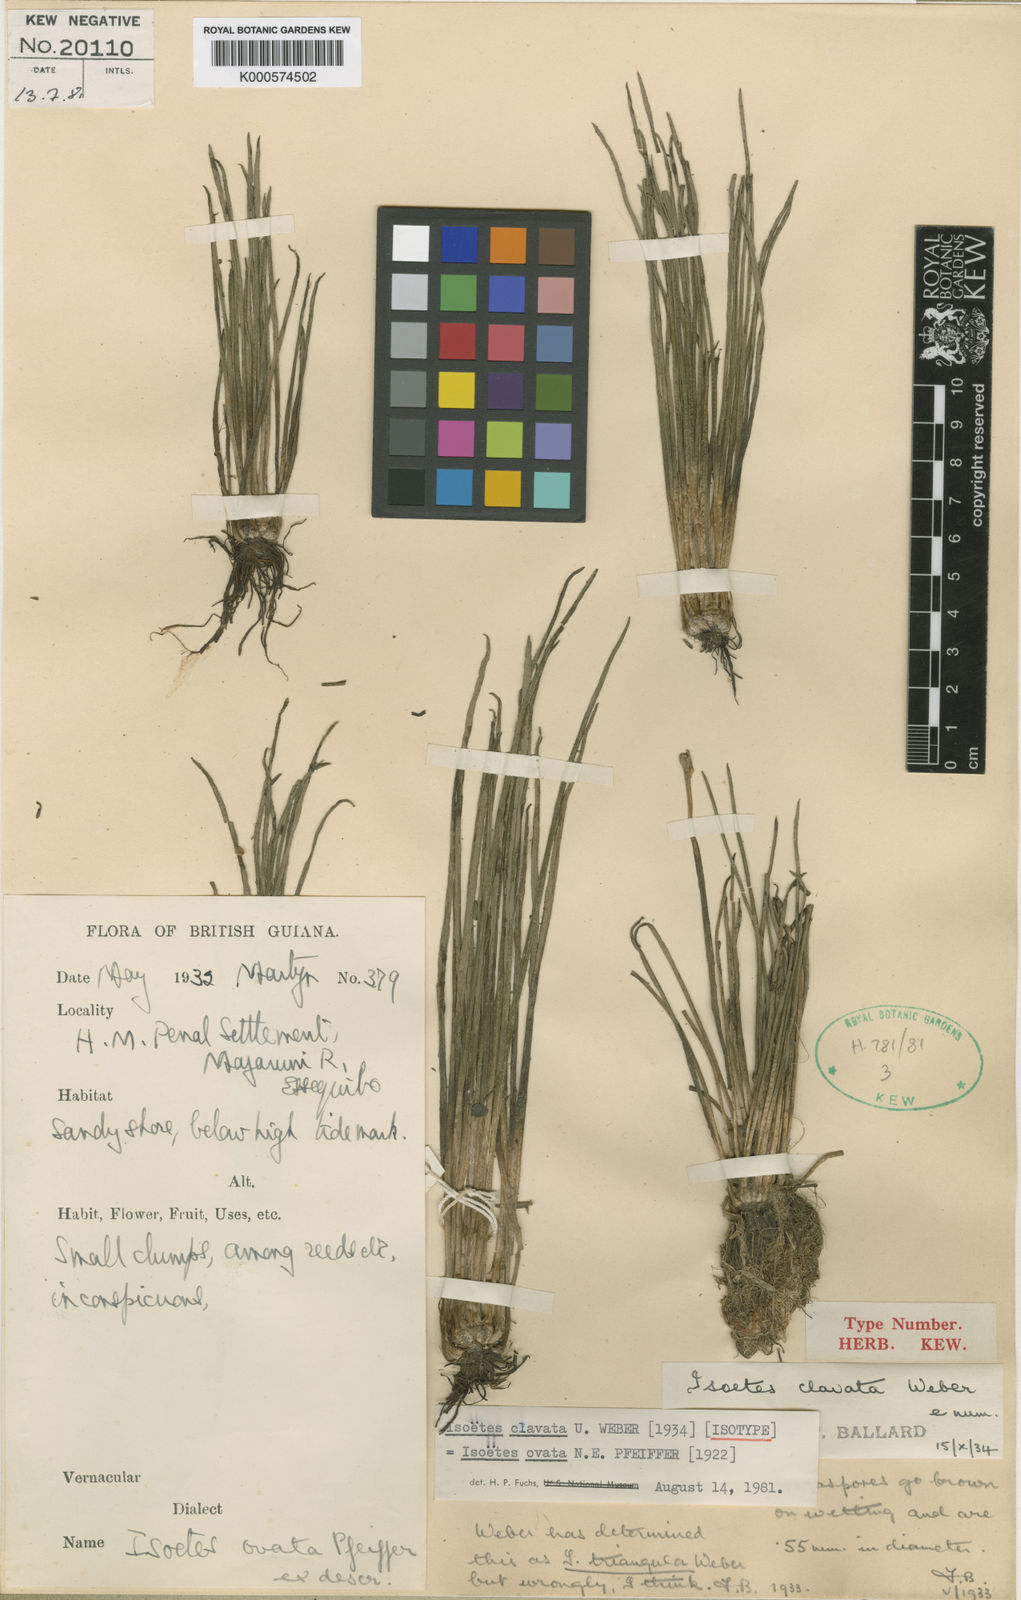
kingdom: Plantae
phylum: Tracheophyta
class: Lycopodiopsida
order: Isoetales
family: Isoetaceae
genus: Isoetes
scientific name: Isoetes ovata
